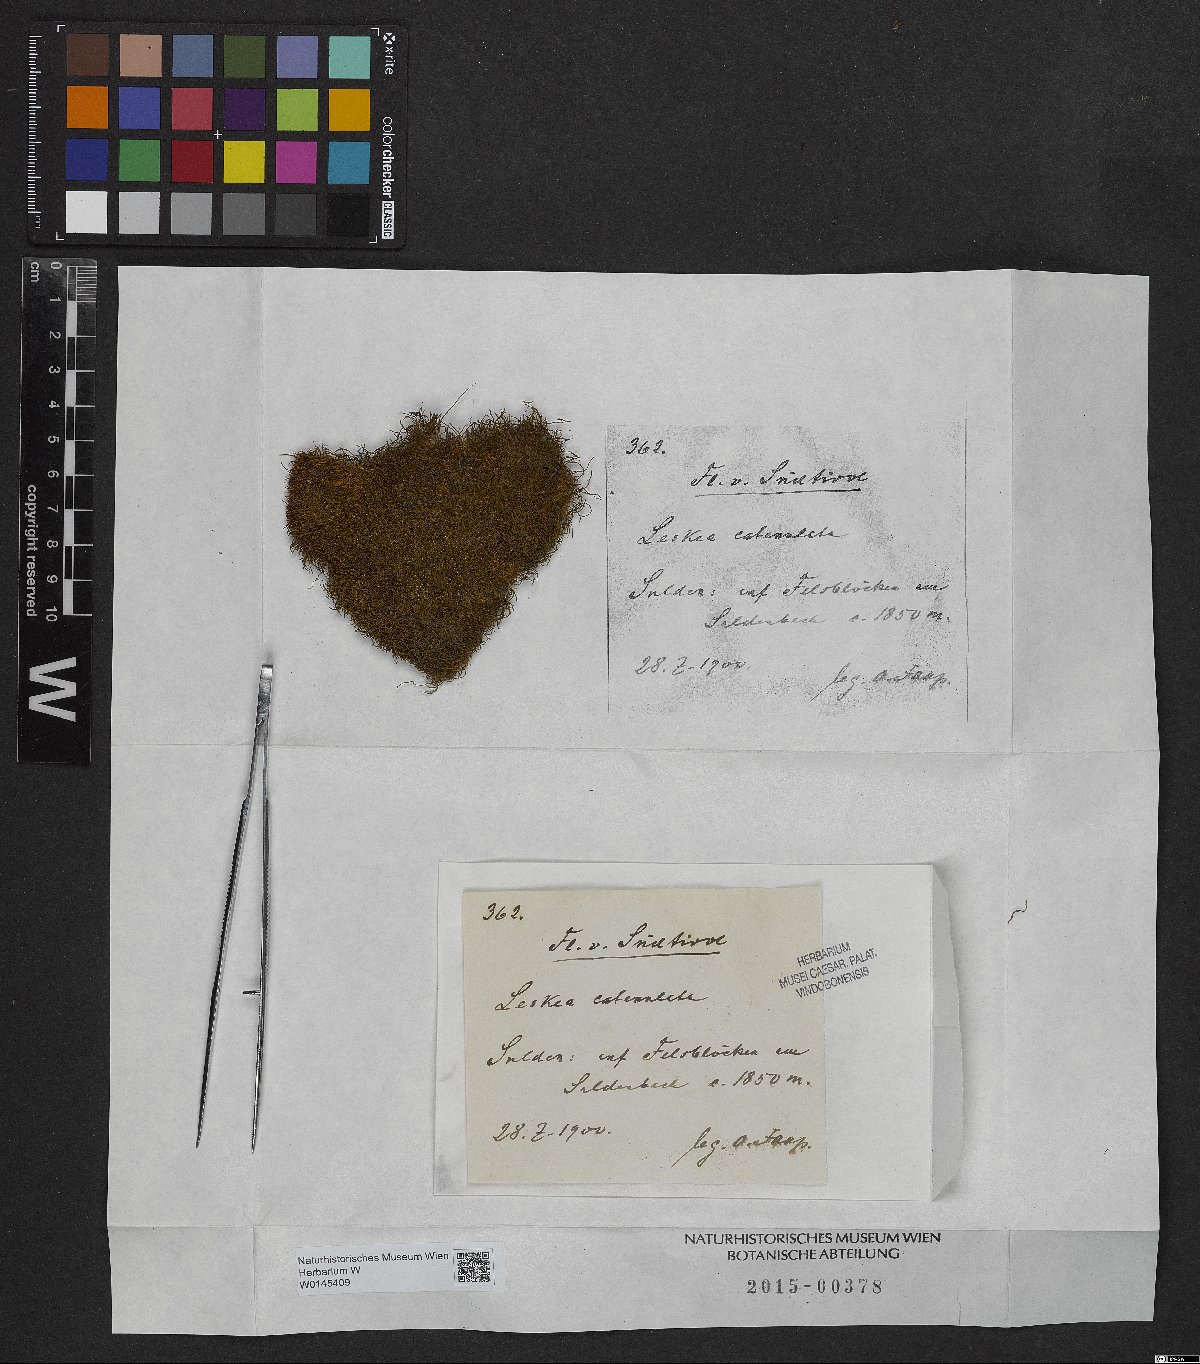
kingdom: Plantae
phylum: Bryophyta
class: Bryopsida
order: Hypnales
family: Pseudoleskeellaceae
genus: Pseudoleskeella
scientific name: Pseudoleskeella catenulata
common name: Chained leskea
